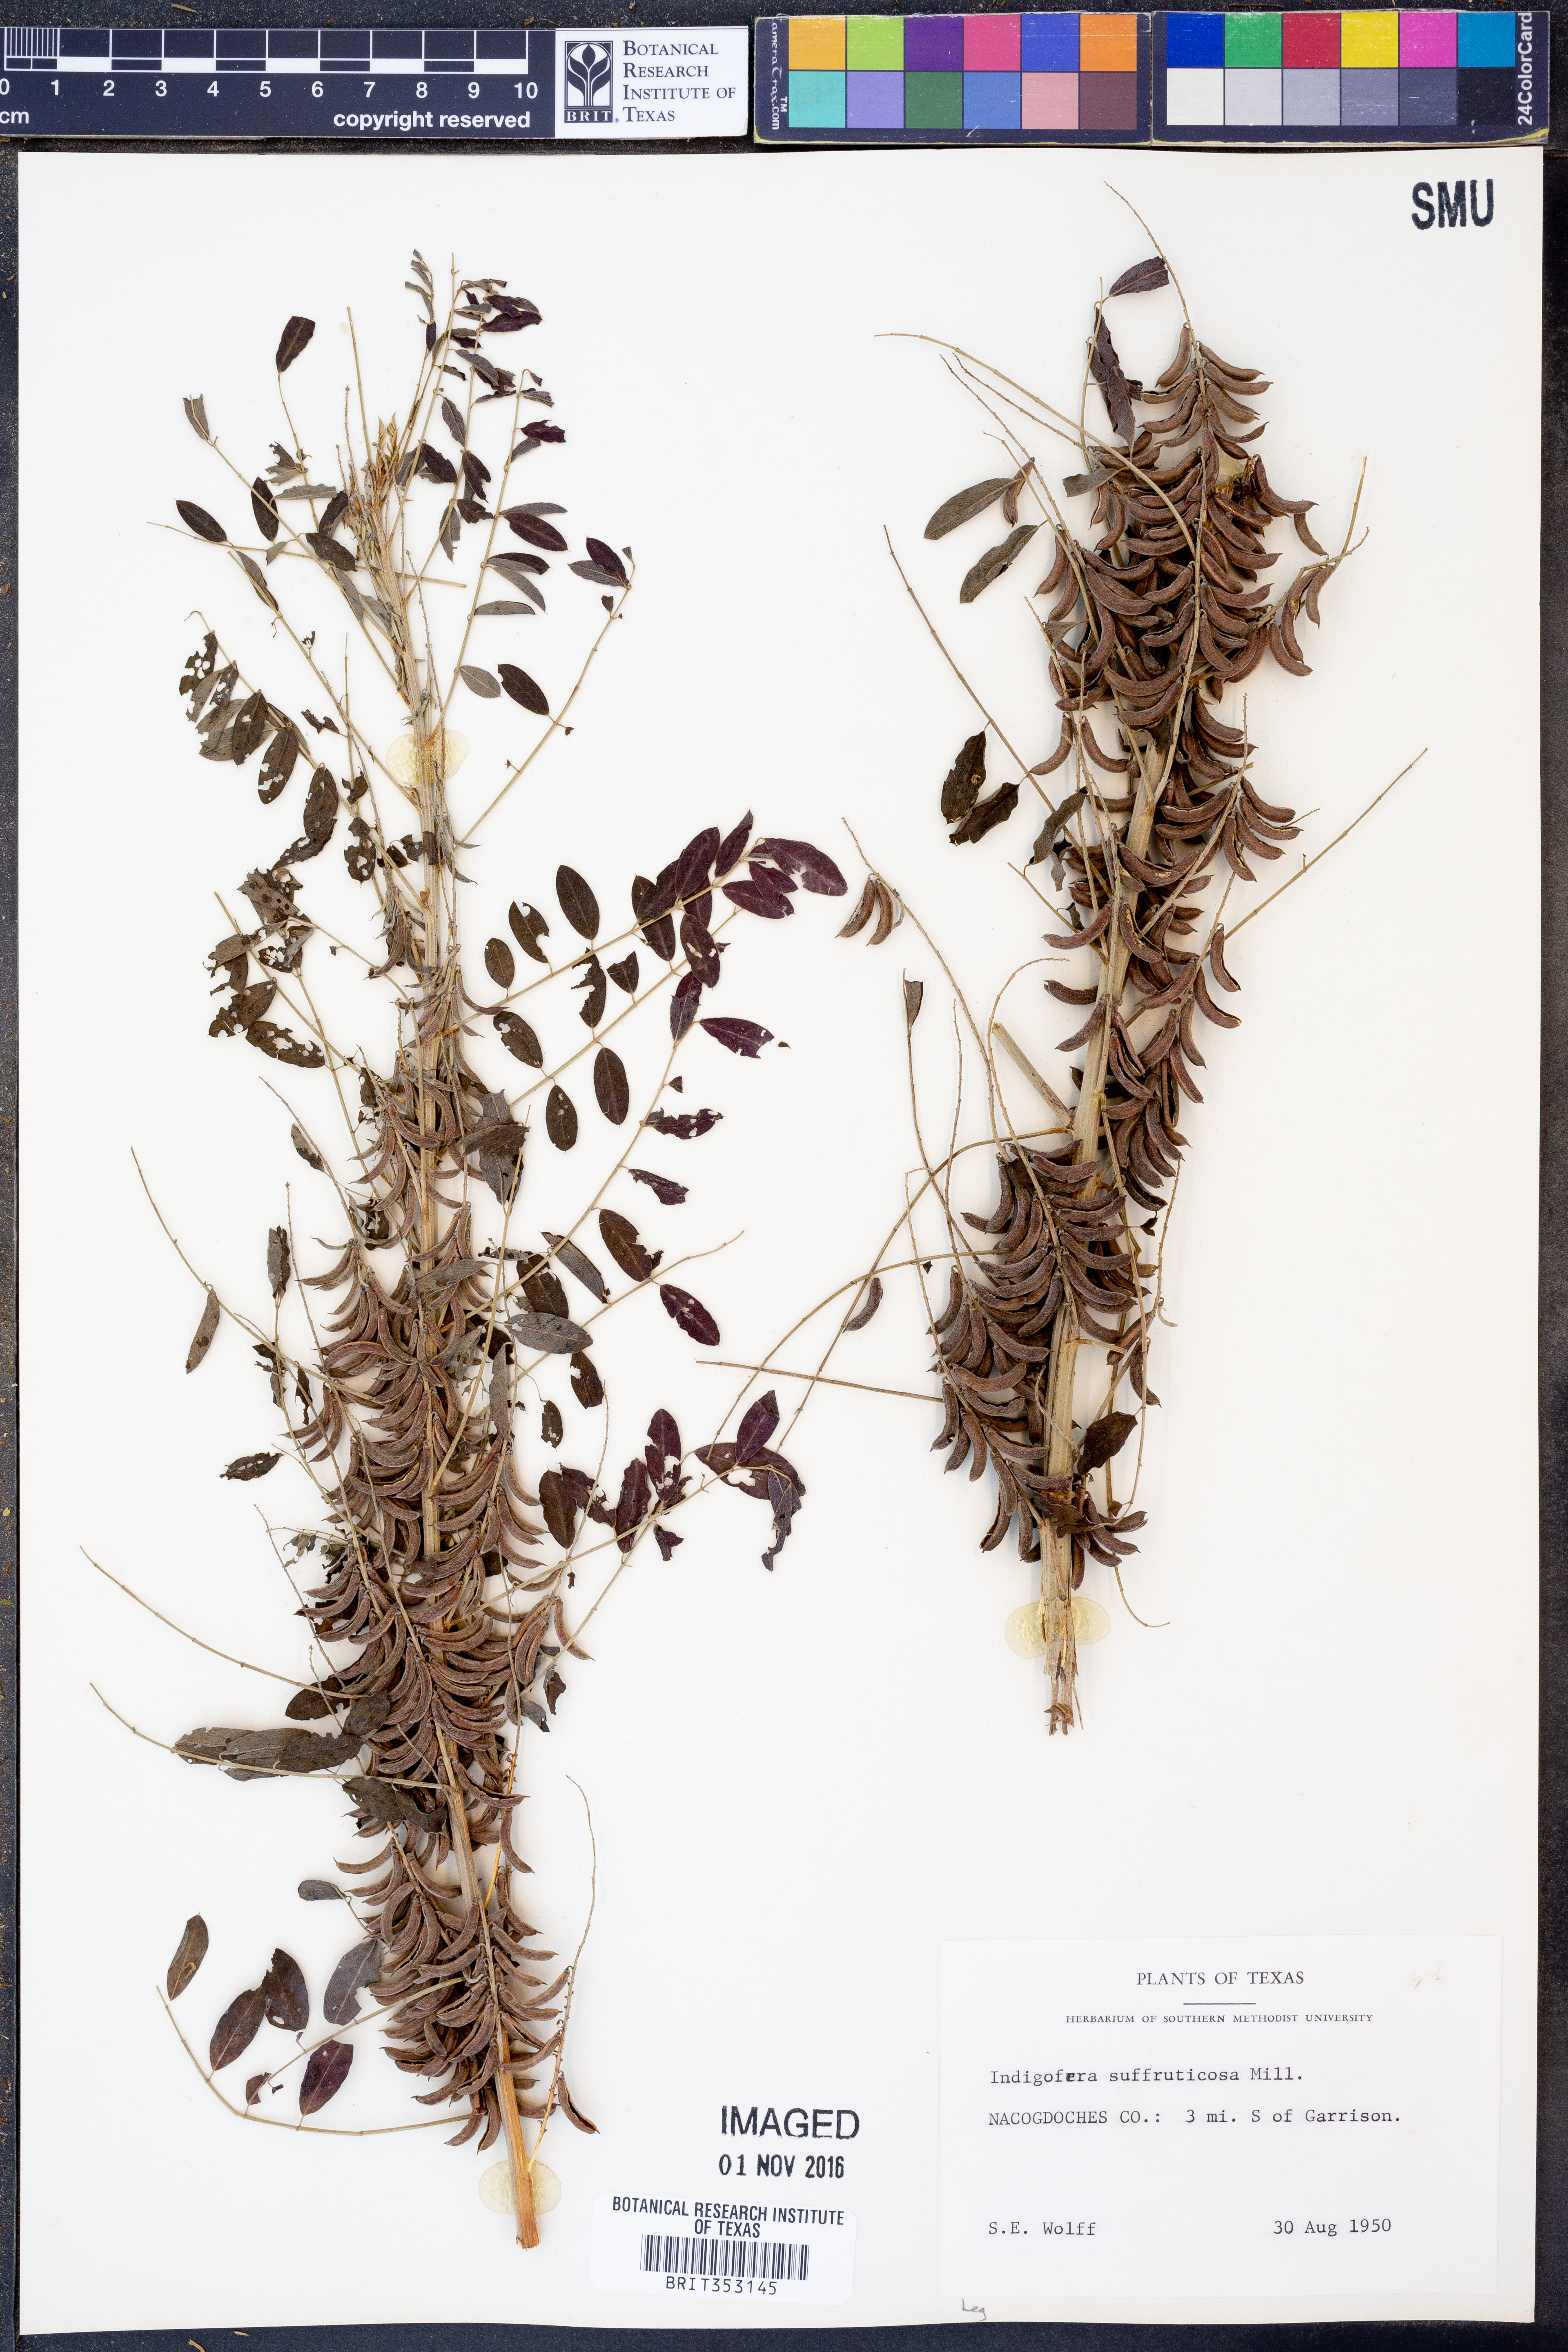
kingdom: Plantae
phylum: Tracheophyta
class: Magnoliopsida
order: Fabales
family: Fabaceae
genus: Indigofera
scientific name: Indigofera suffruticosa
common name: Anil de pasto
